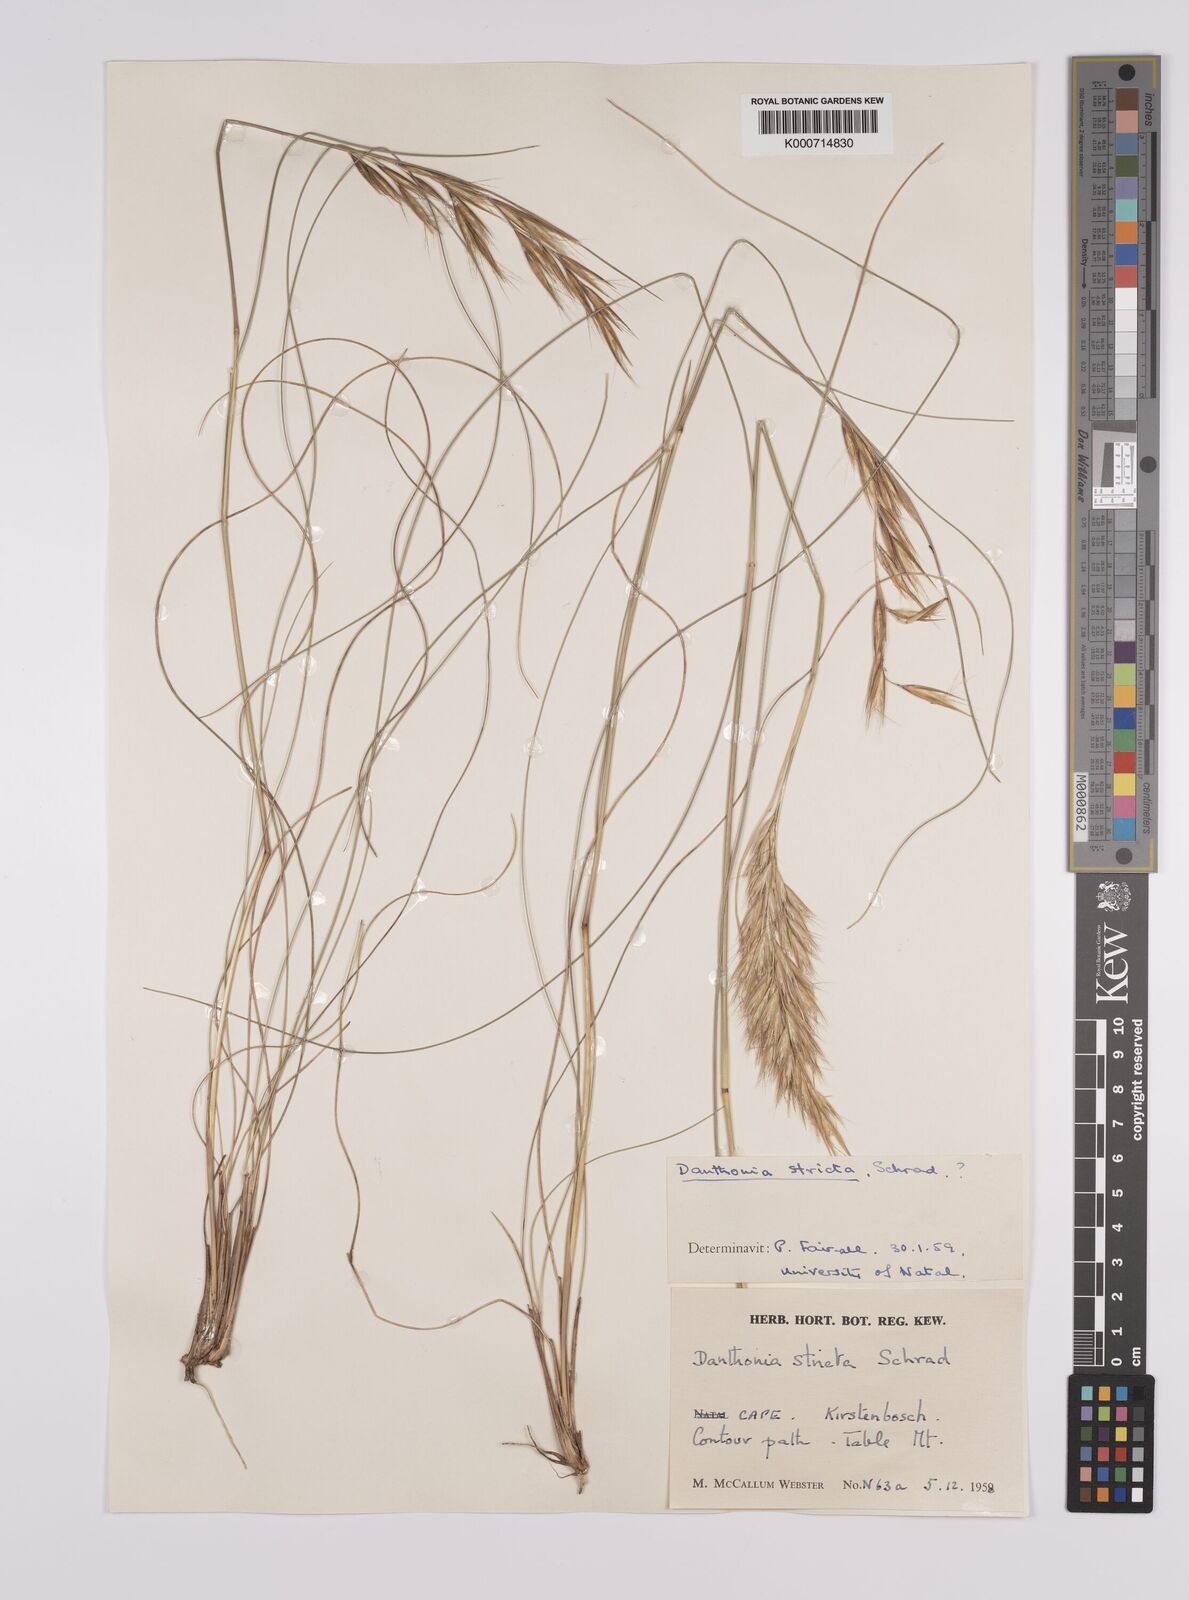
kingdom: Plantae
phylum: Tracheophyta
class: Liliopsida
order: Poales
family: Poaceae
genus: Rytidosperma
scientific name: Rytidosperma
